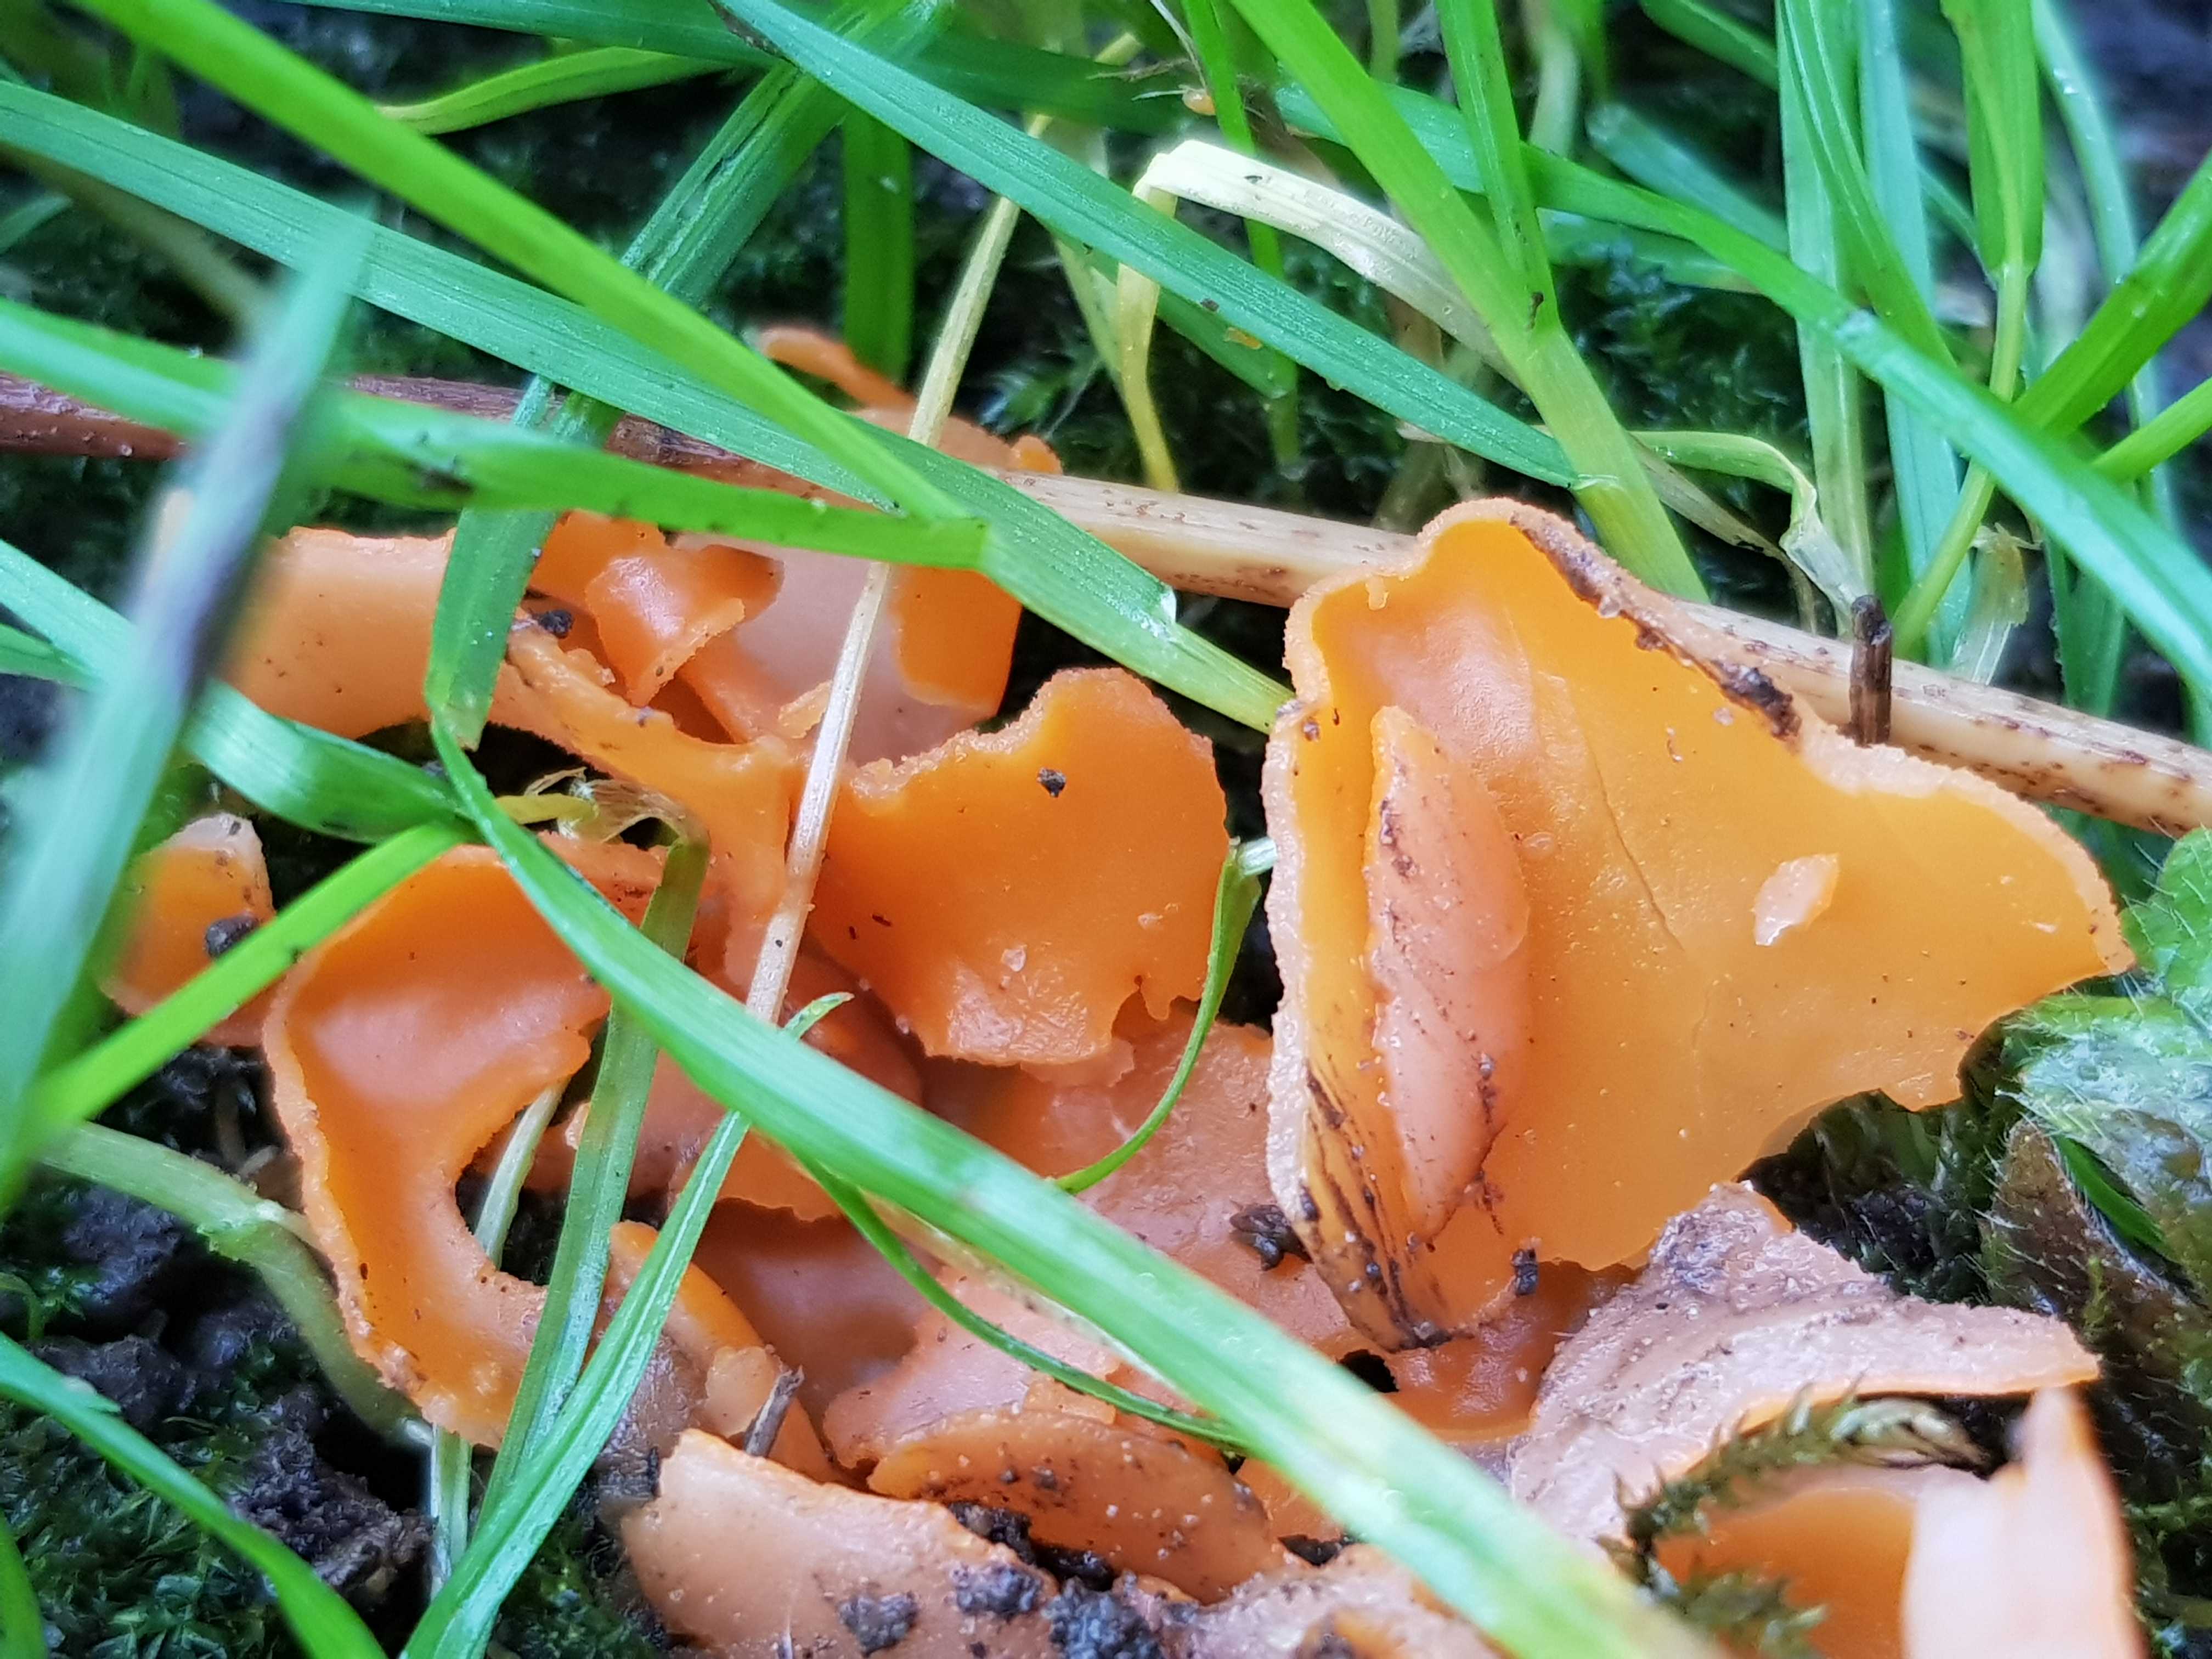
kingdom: Fungi
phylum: Ascomycota
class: Pezizomycetes
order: Pezizales
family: Pyronemataceae
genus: Aleuria
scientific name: Aleuria aurantia
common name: almindelig orangebæger
